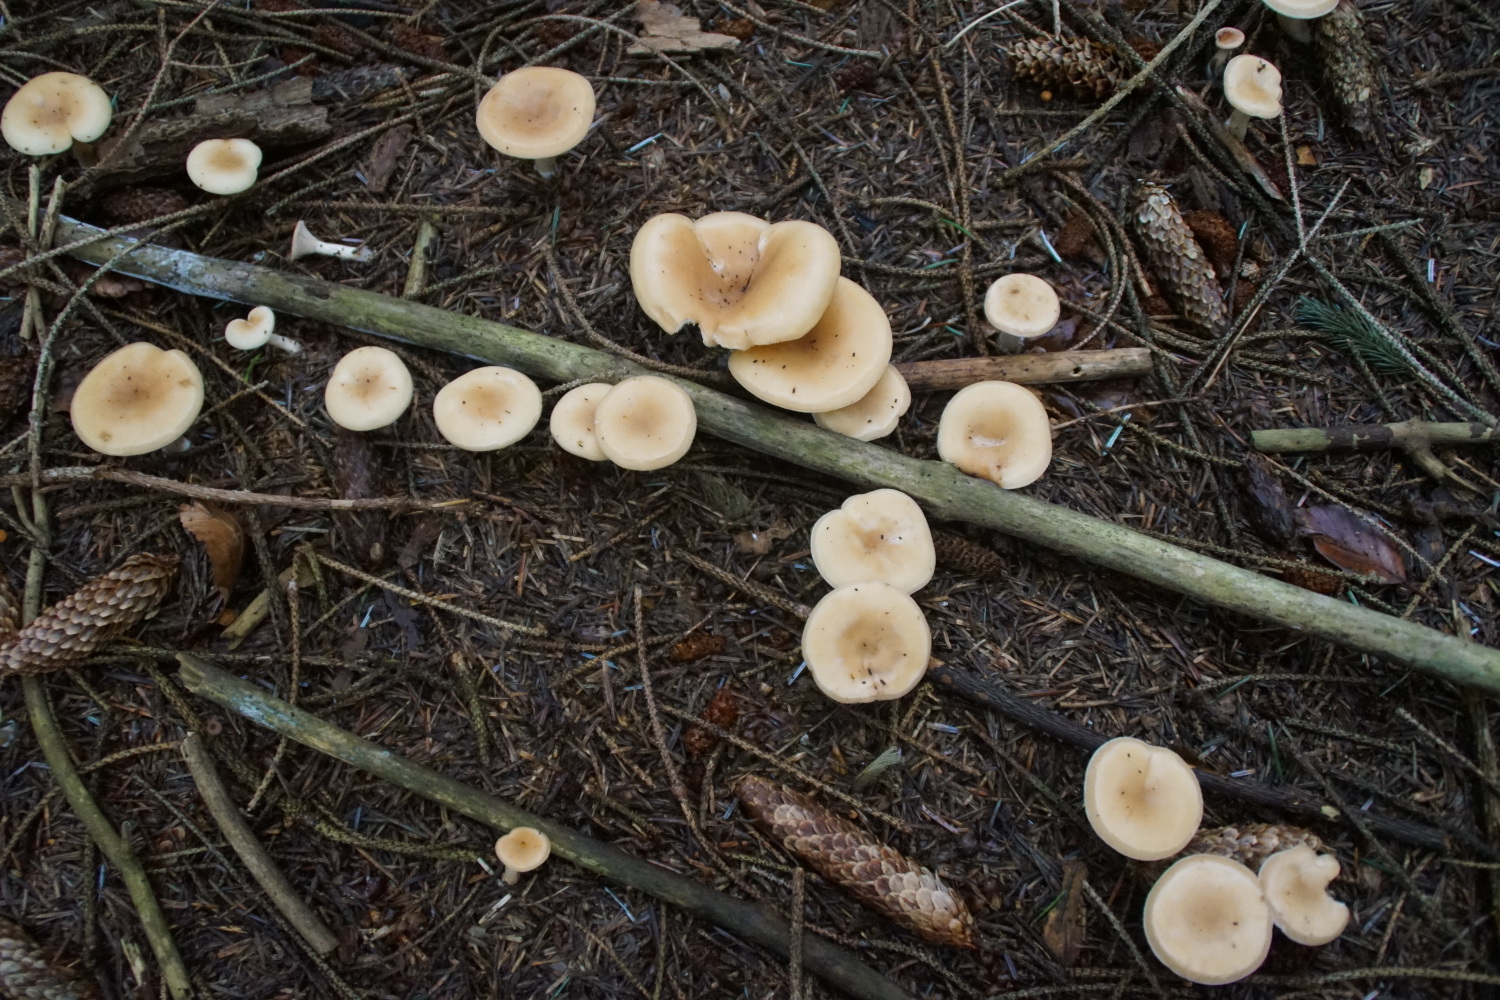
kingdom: Fungi
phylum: Basidiomycota
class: Agaricomycetes
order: Agaricales
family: Tricholomataceae
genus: Paralepista
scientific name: Paralepista flaccida
